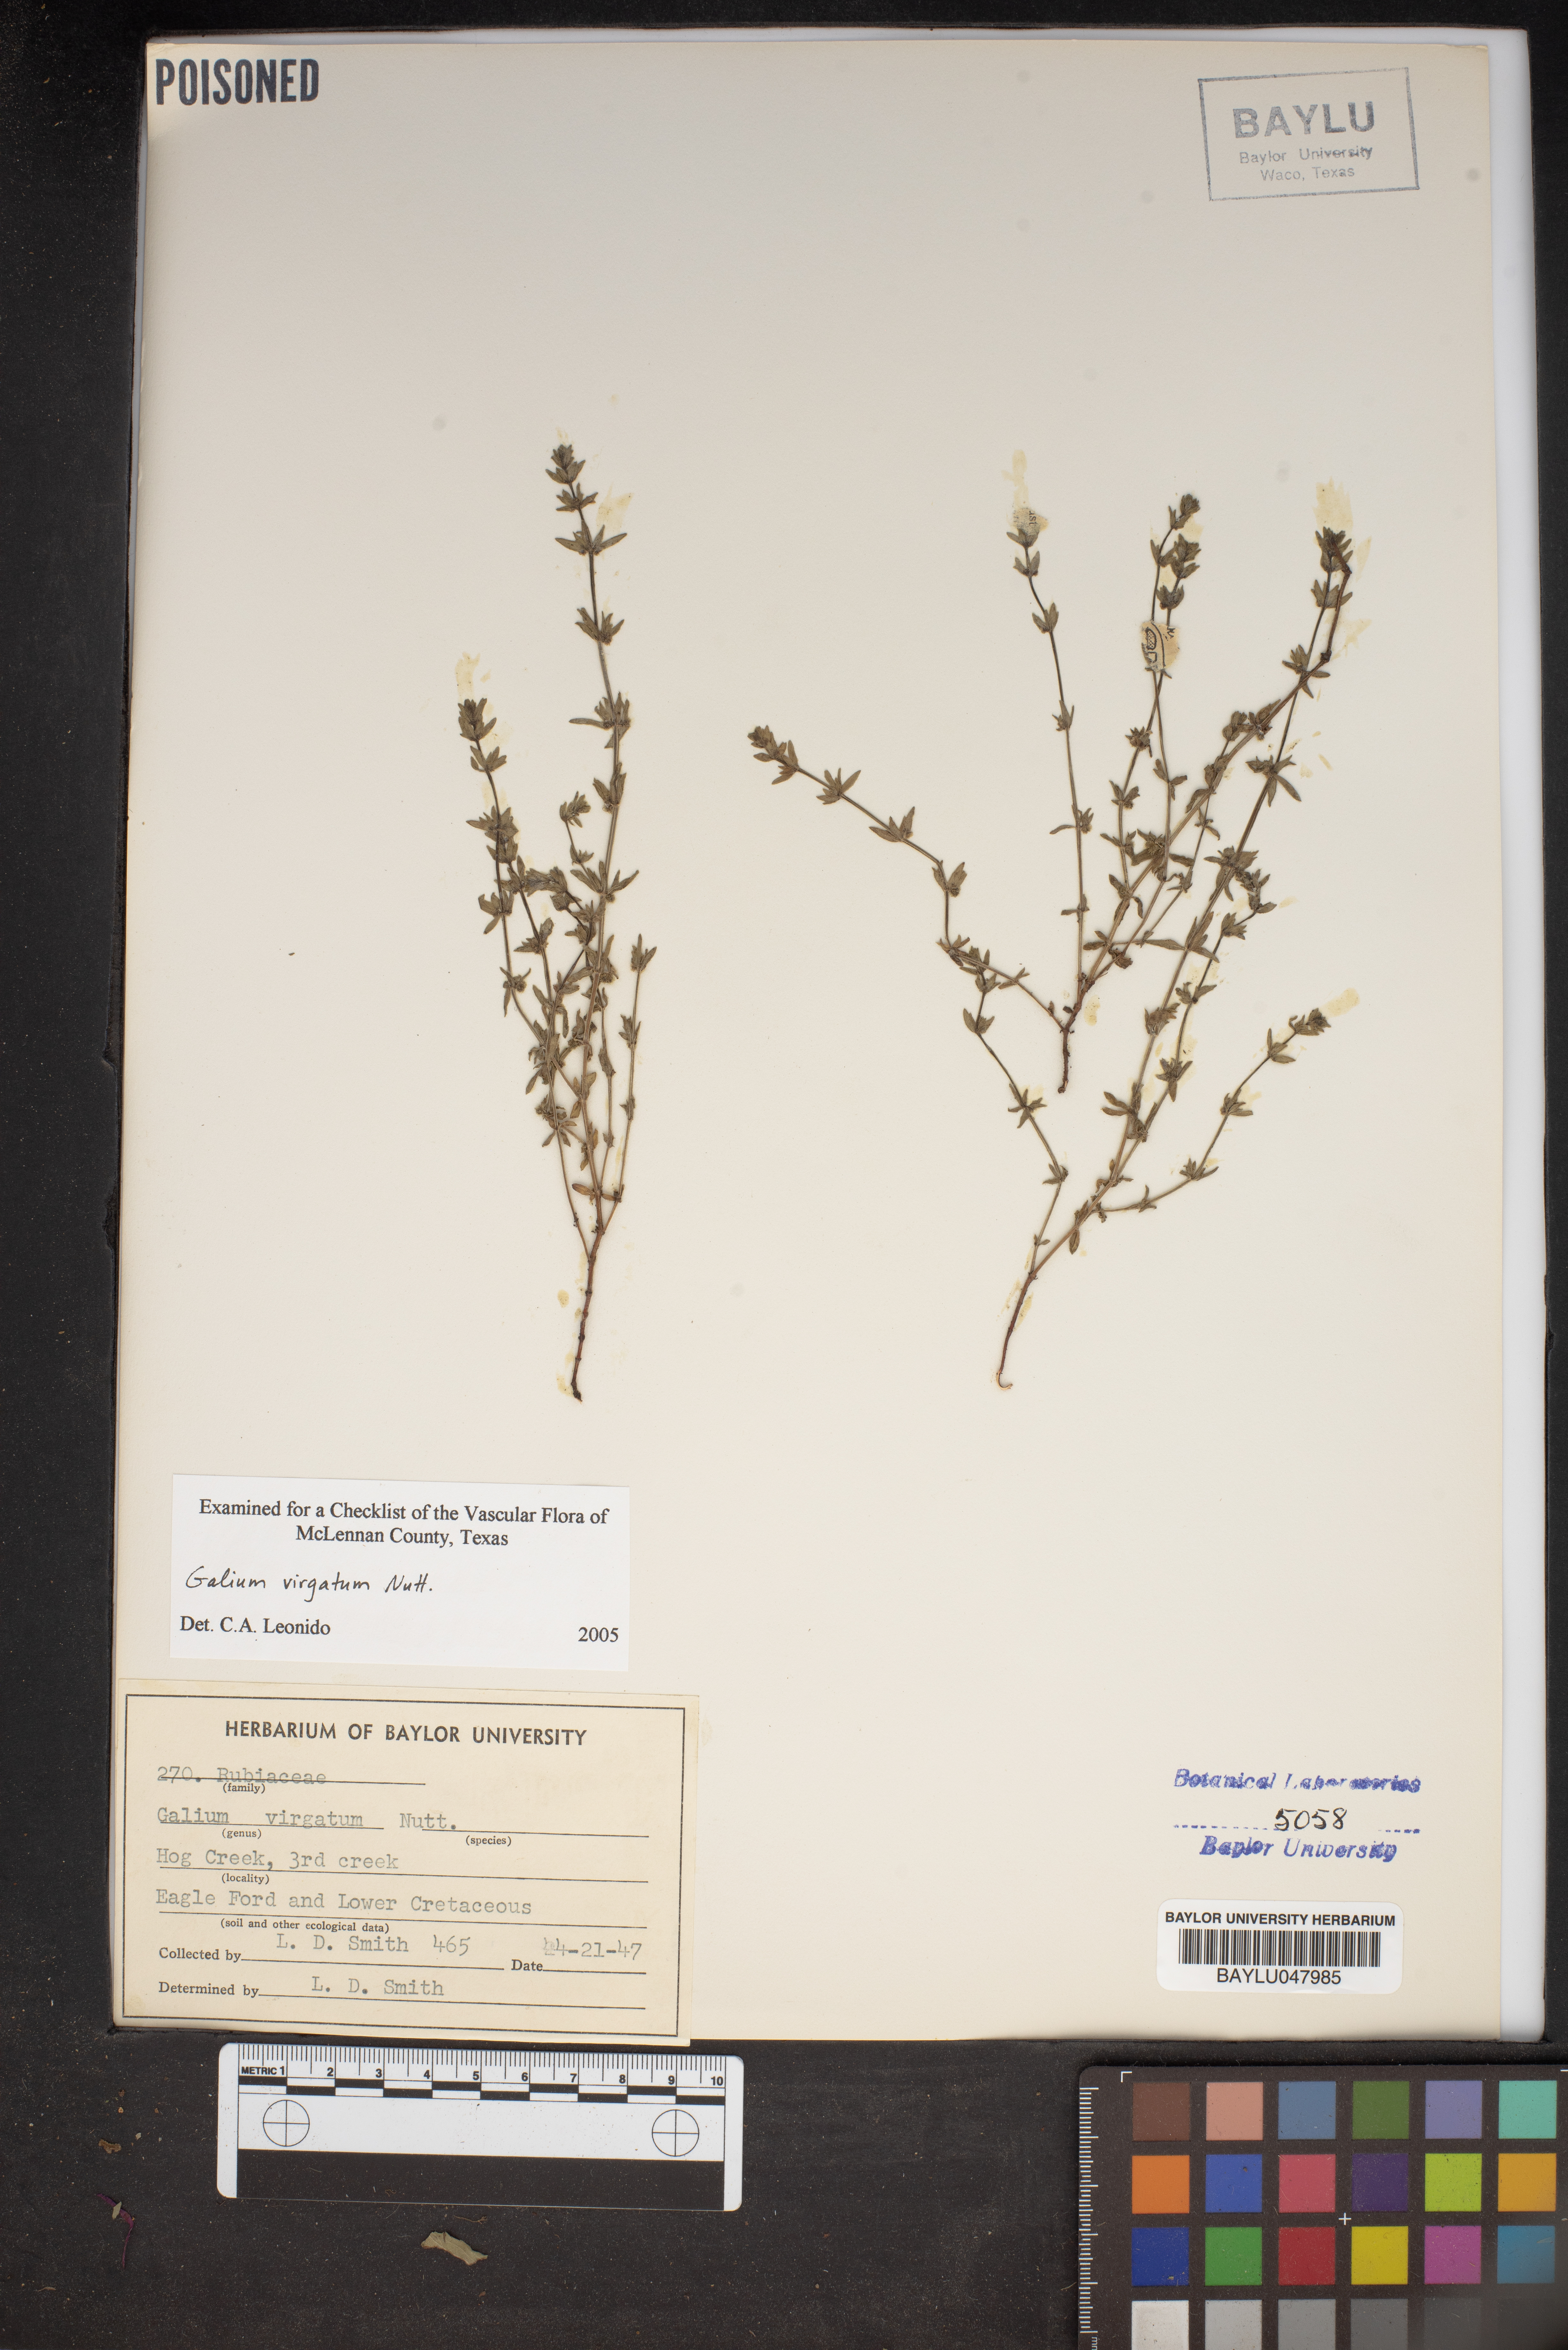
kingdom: Plantae
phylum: Tracheophyta
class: Magnoliopsida
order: Gentianales
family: Rubiaceae
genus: Galium
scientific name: Galium virgatum
